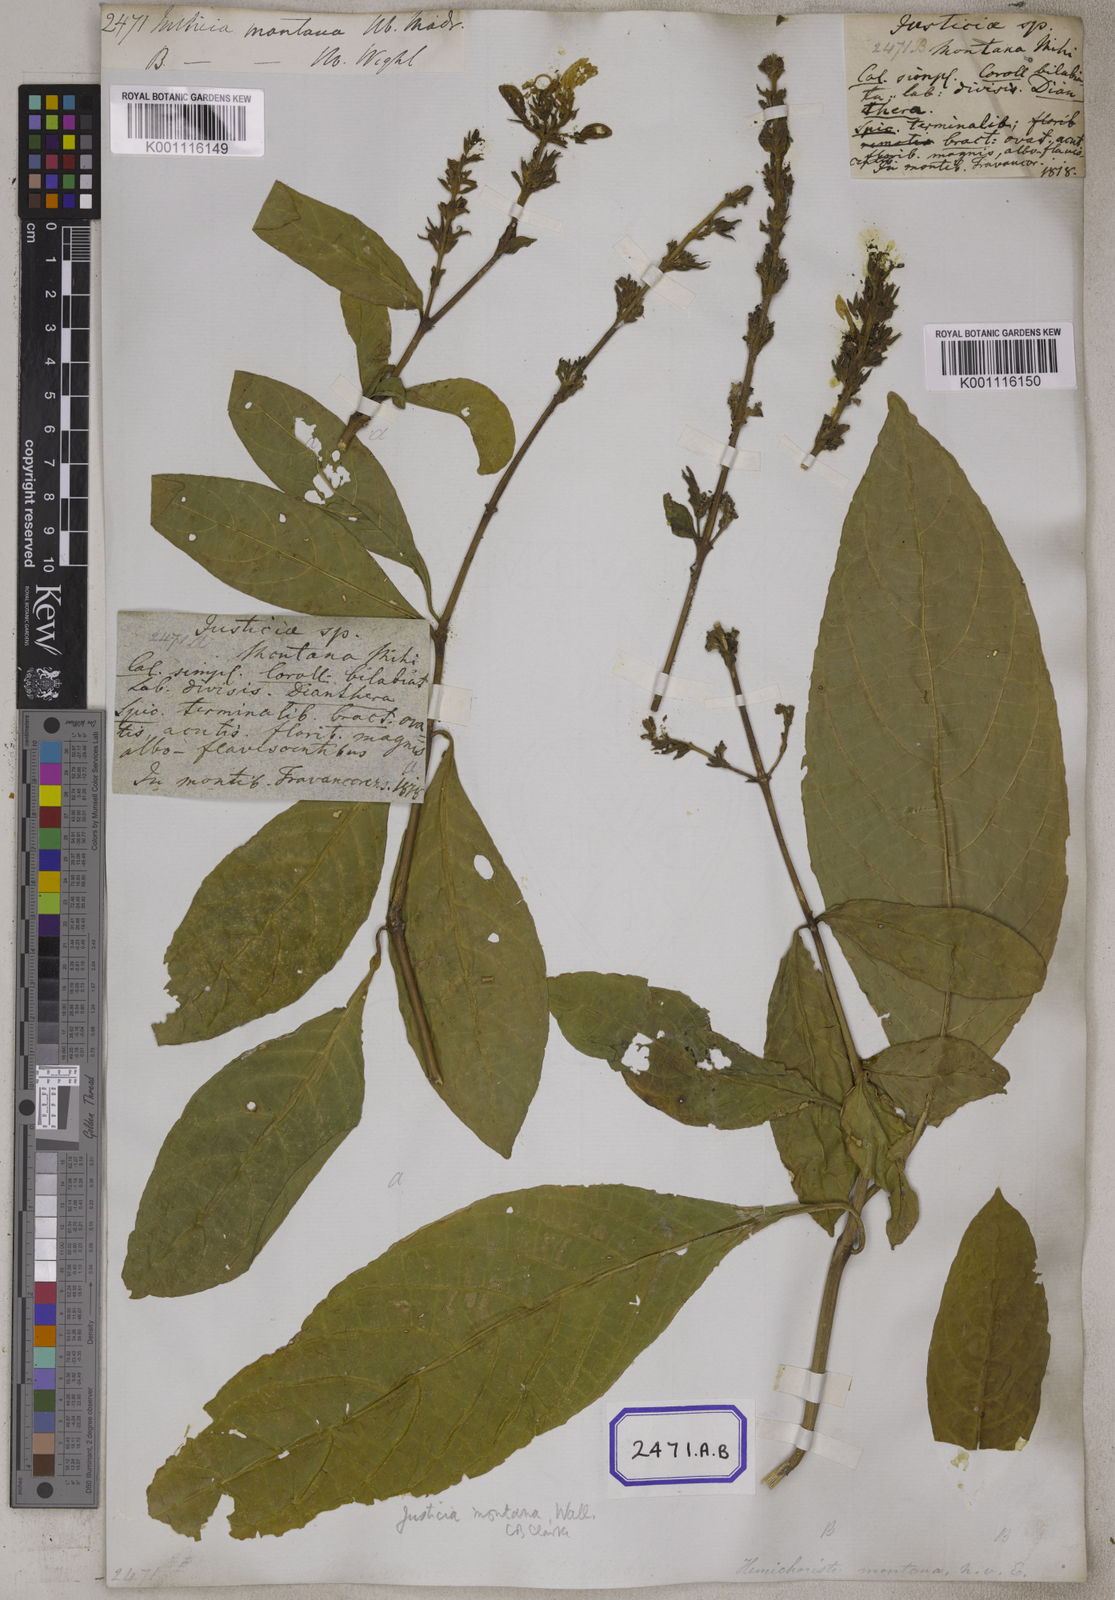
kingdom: Plantae
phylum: Tracheophyta
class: Magnoliopsida
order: Lamiales
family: Acanthaceae
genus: Justicia
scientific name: Justicia
